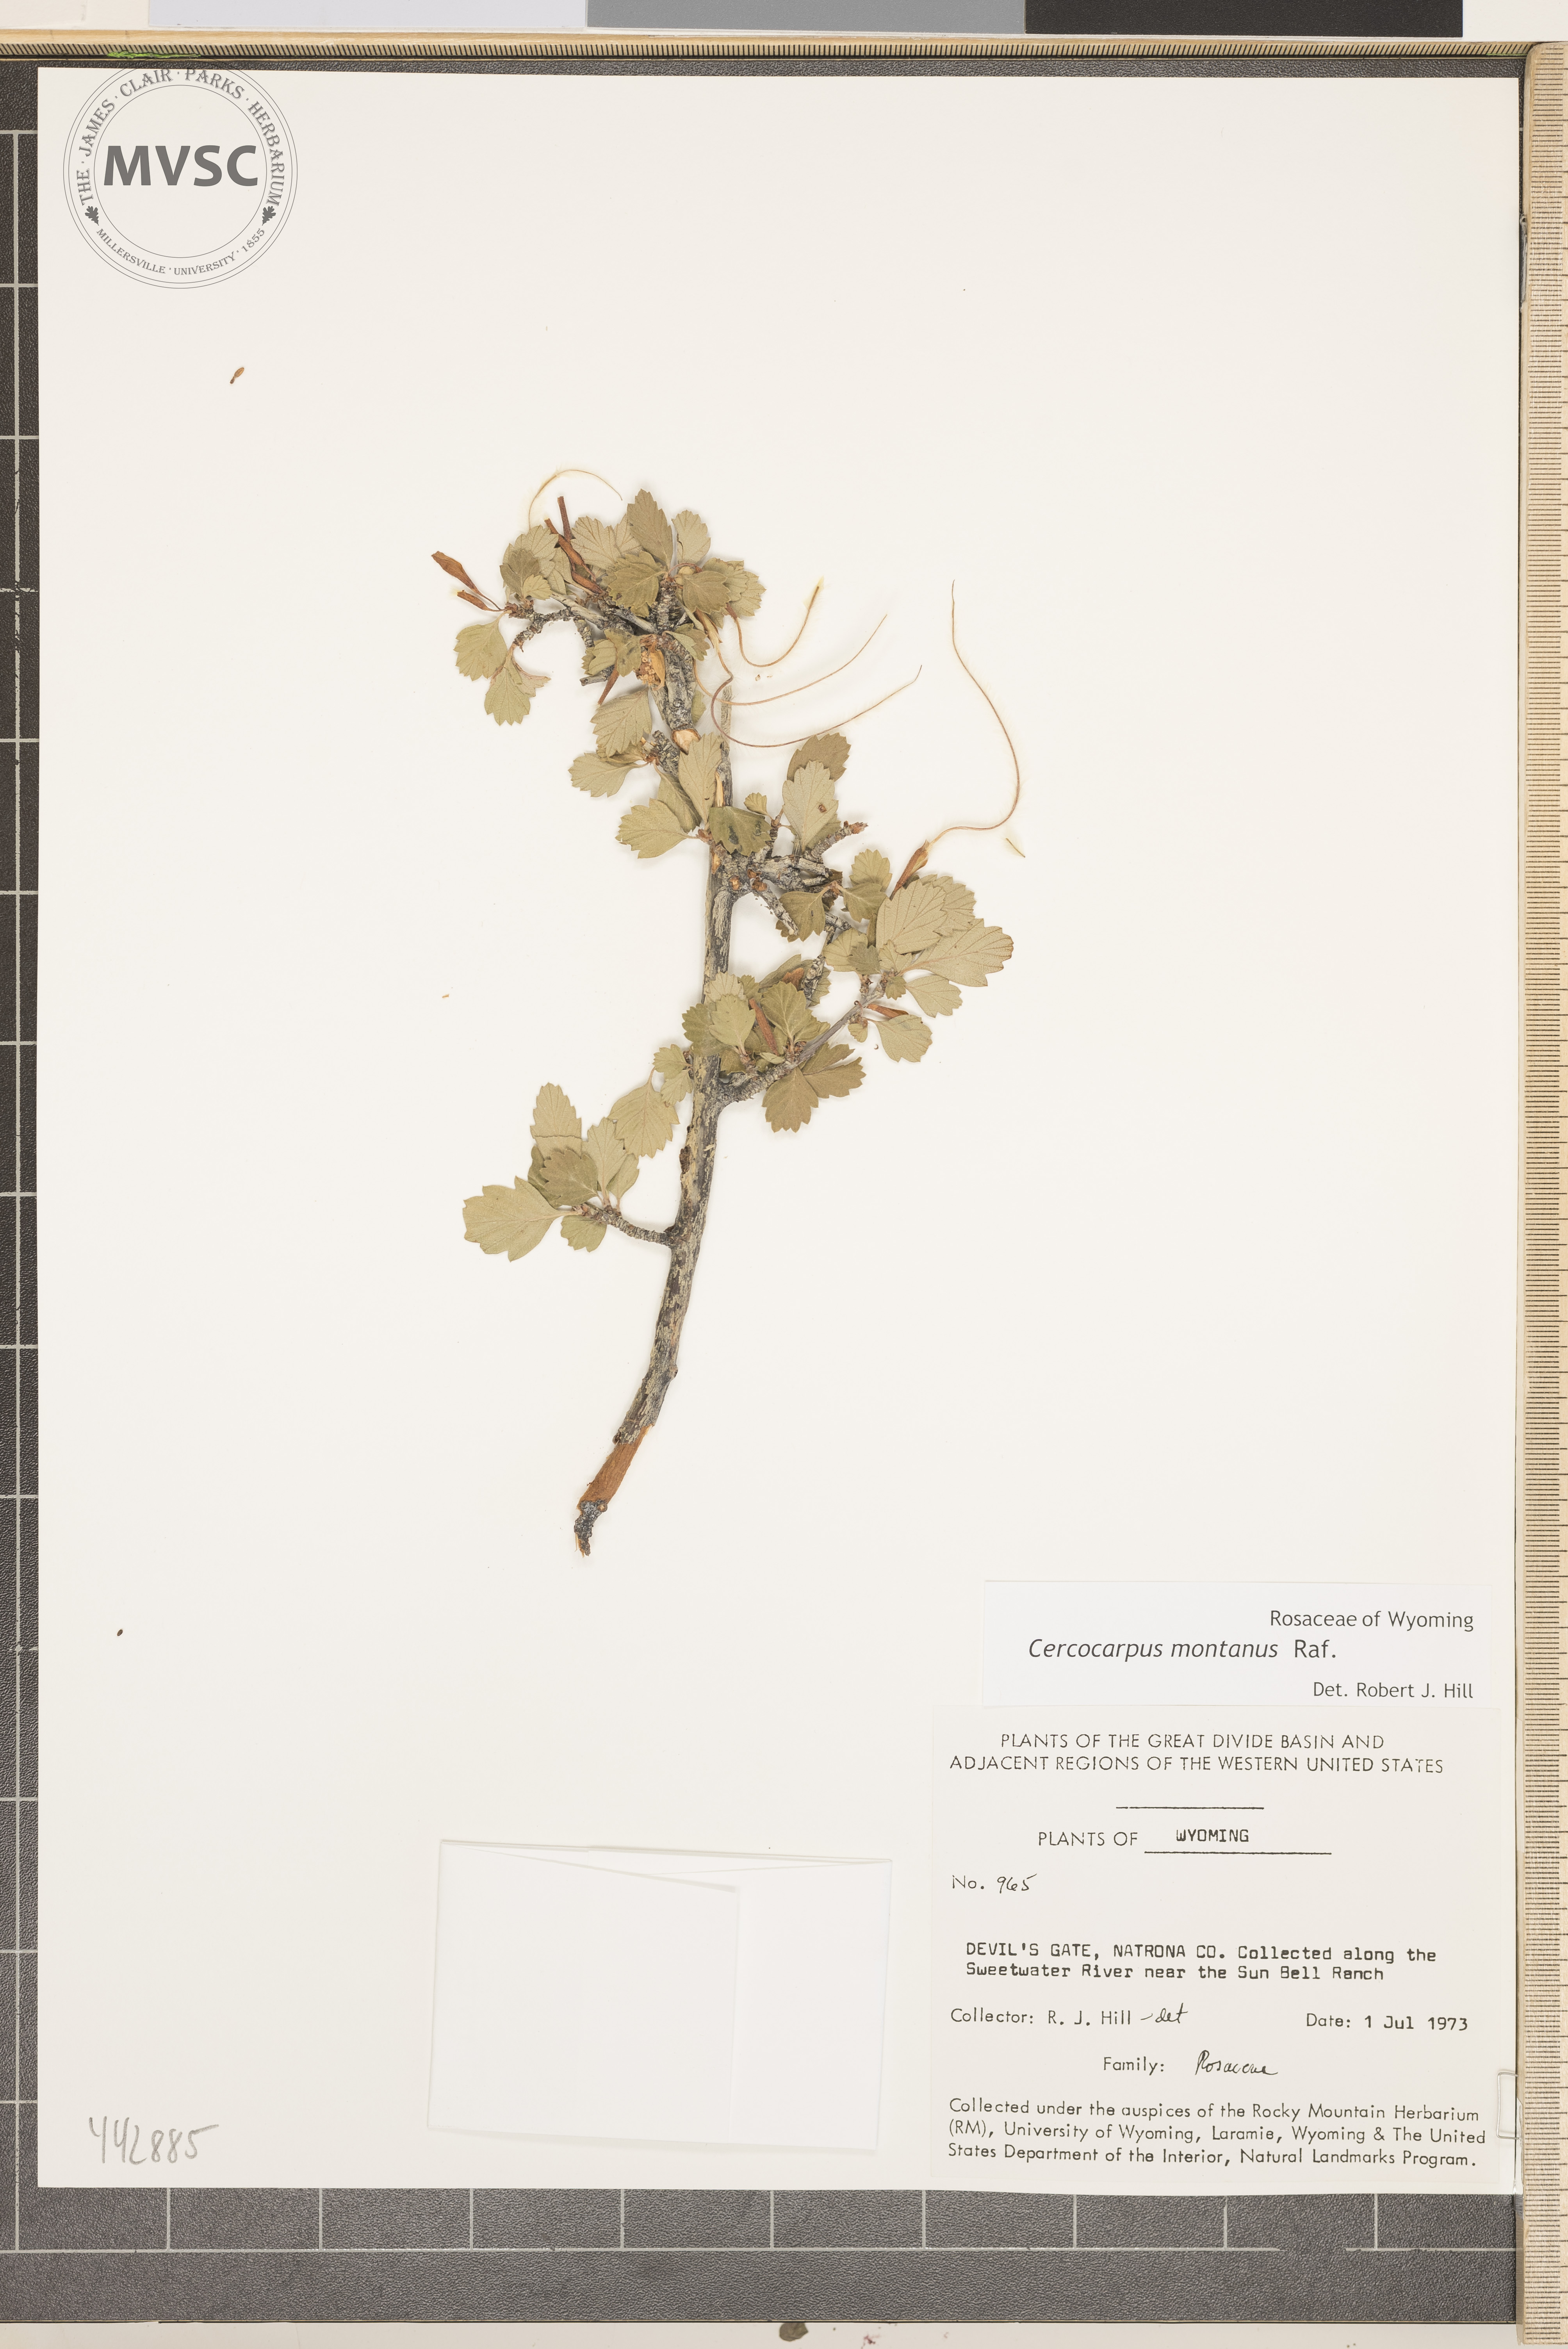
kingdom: Plantae
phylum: Tracheophyta
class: Magnoliopsida
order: Rosales
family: Rosaceae
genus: Cercocarpus
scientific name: Cercocarpus montanus
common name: Alder-leaf cercocarpus
